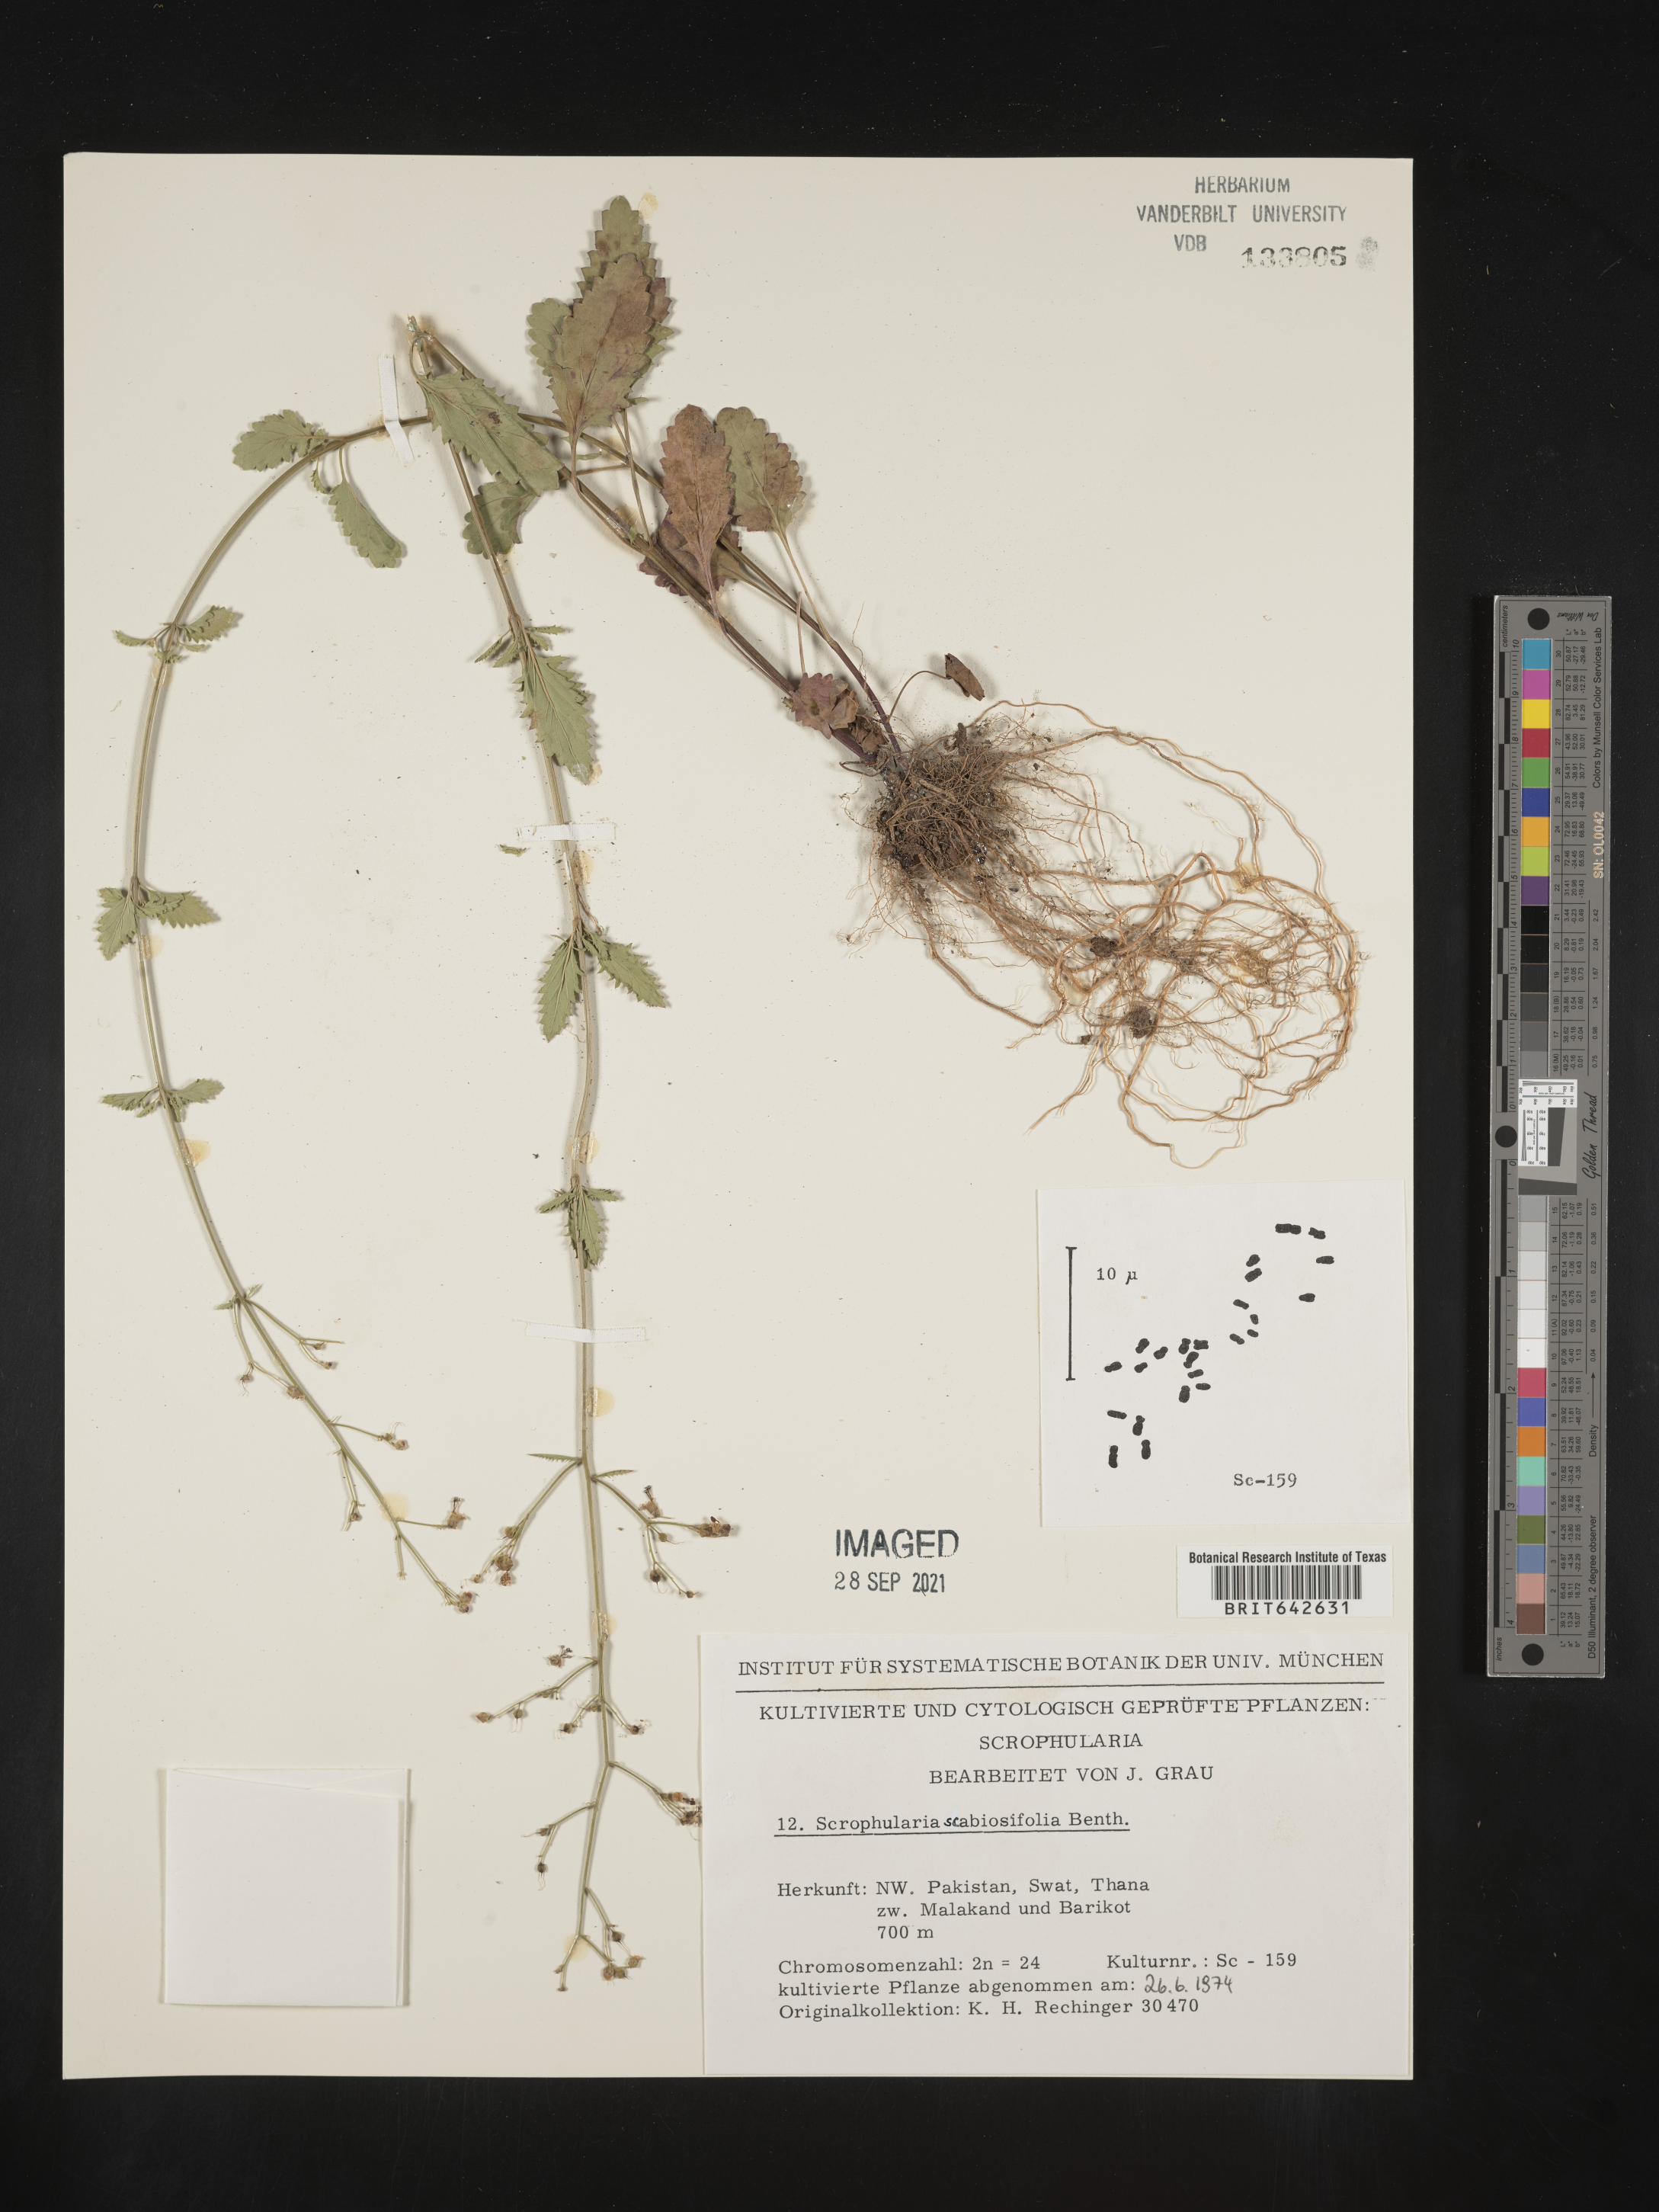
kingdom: Plantae
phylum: Tracheophyta
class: Magnoliopsida
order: Lamiales
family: Scrophulariaceae
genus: Scrophularia
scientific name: Scrophularia
